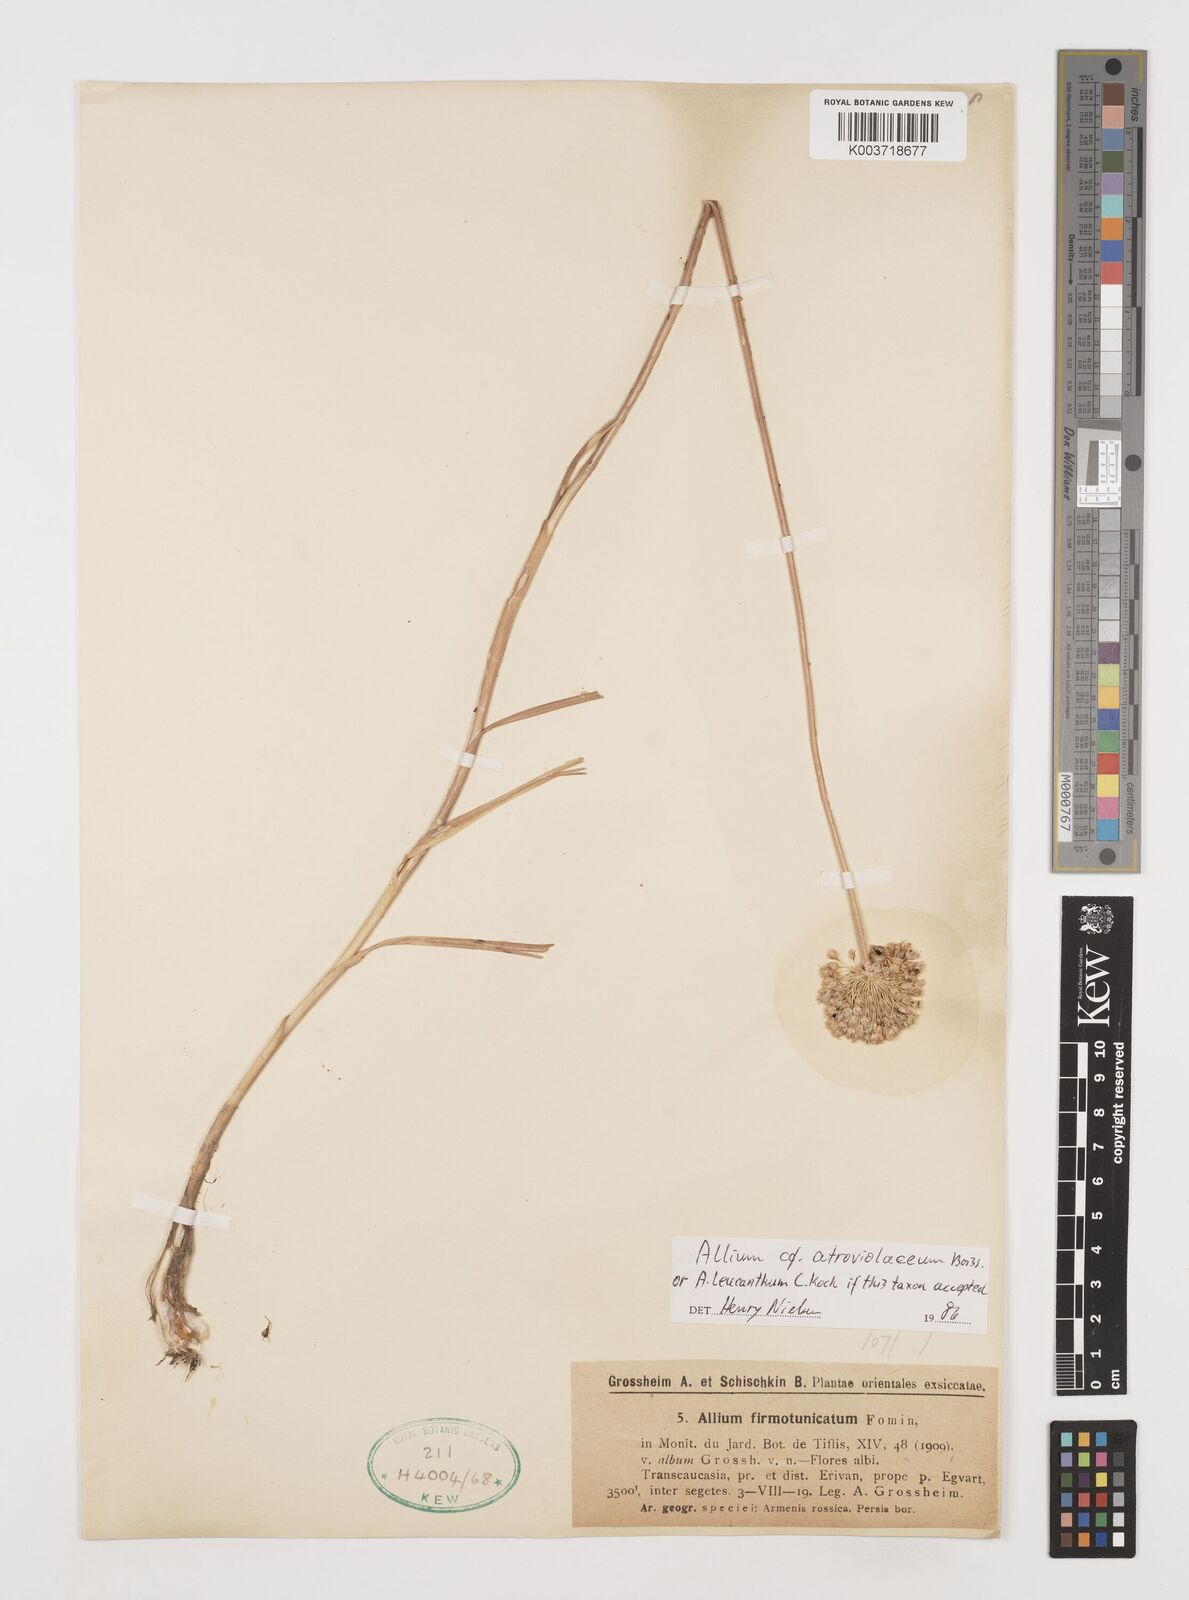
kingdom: Plantae
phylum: Tracheophyta
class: Liliopsida
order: Asparagales
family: Amaryllidaceae
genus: Allium
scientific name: Allium atroviolaceum
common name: Broadleaf wild leek
